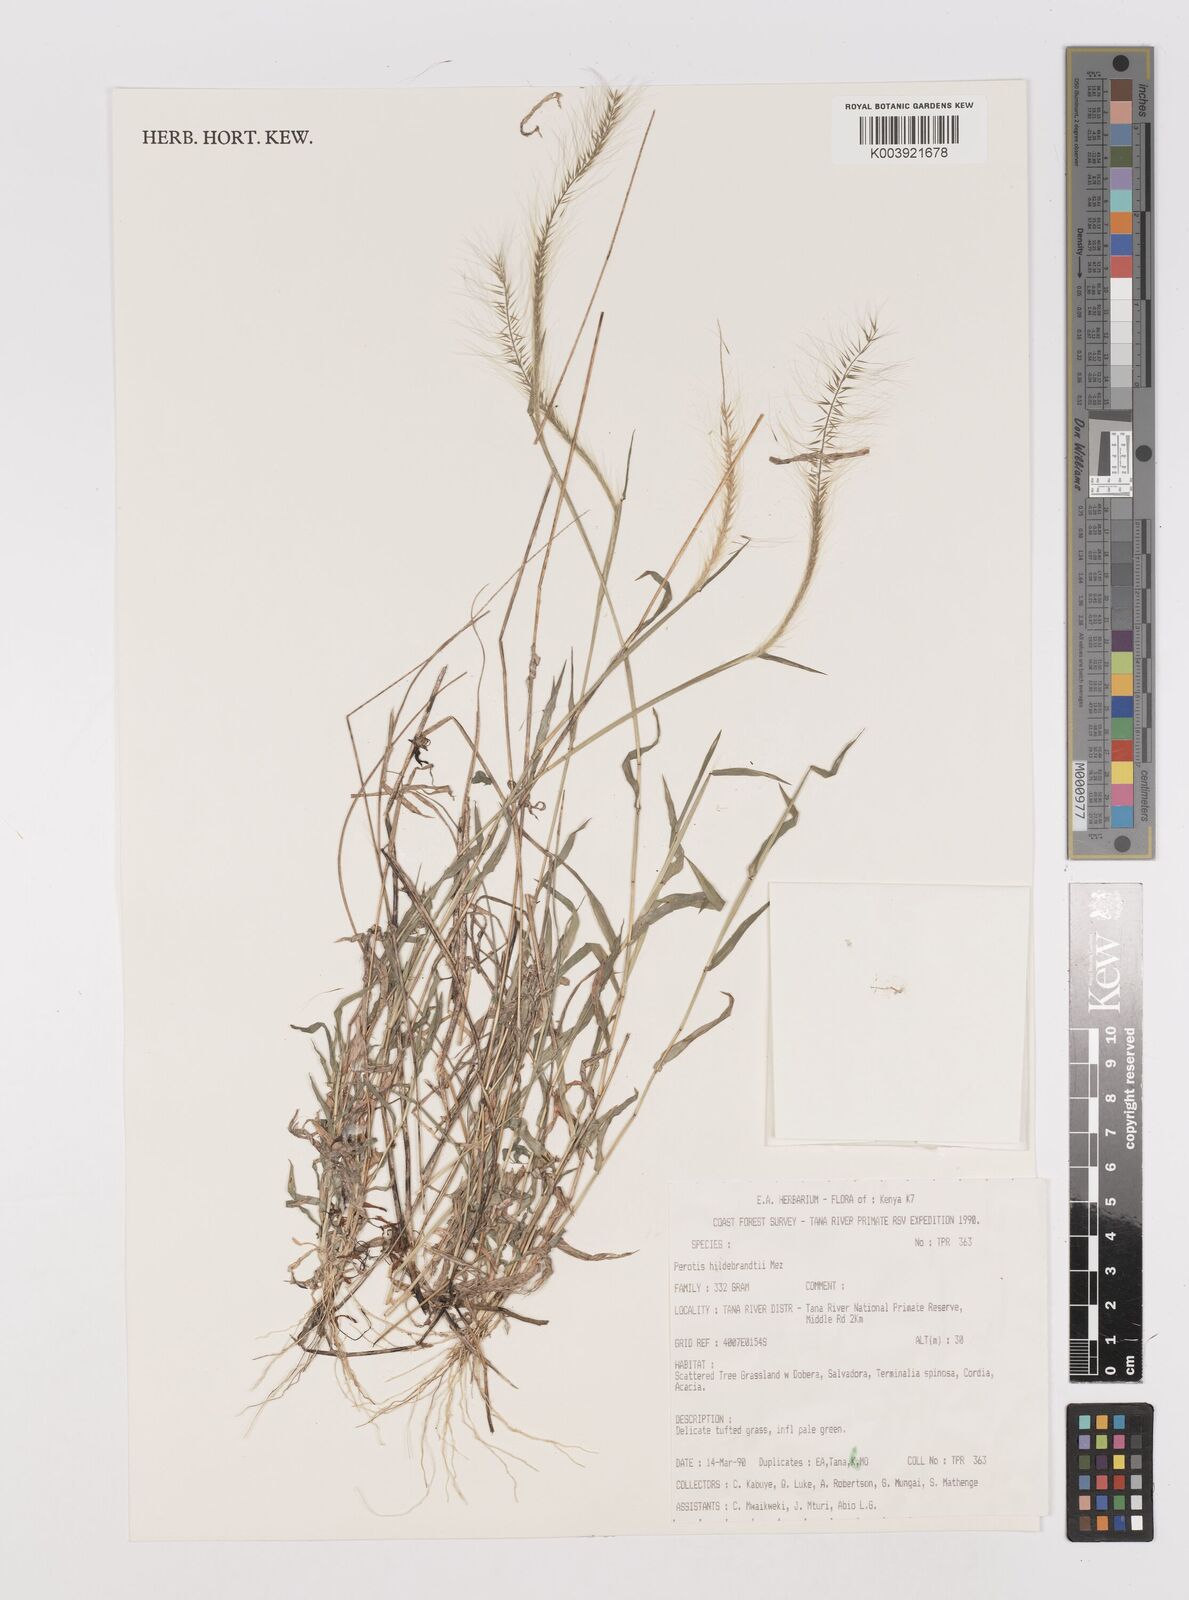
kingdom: Plantae
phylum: Tracheophyta
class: Liliopsida
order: Poales
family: Poaceae
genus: Perotis
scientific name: Perotis hildebrandtii
